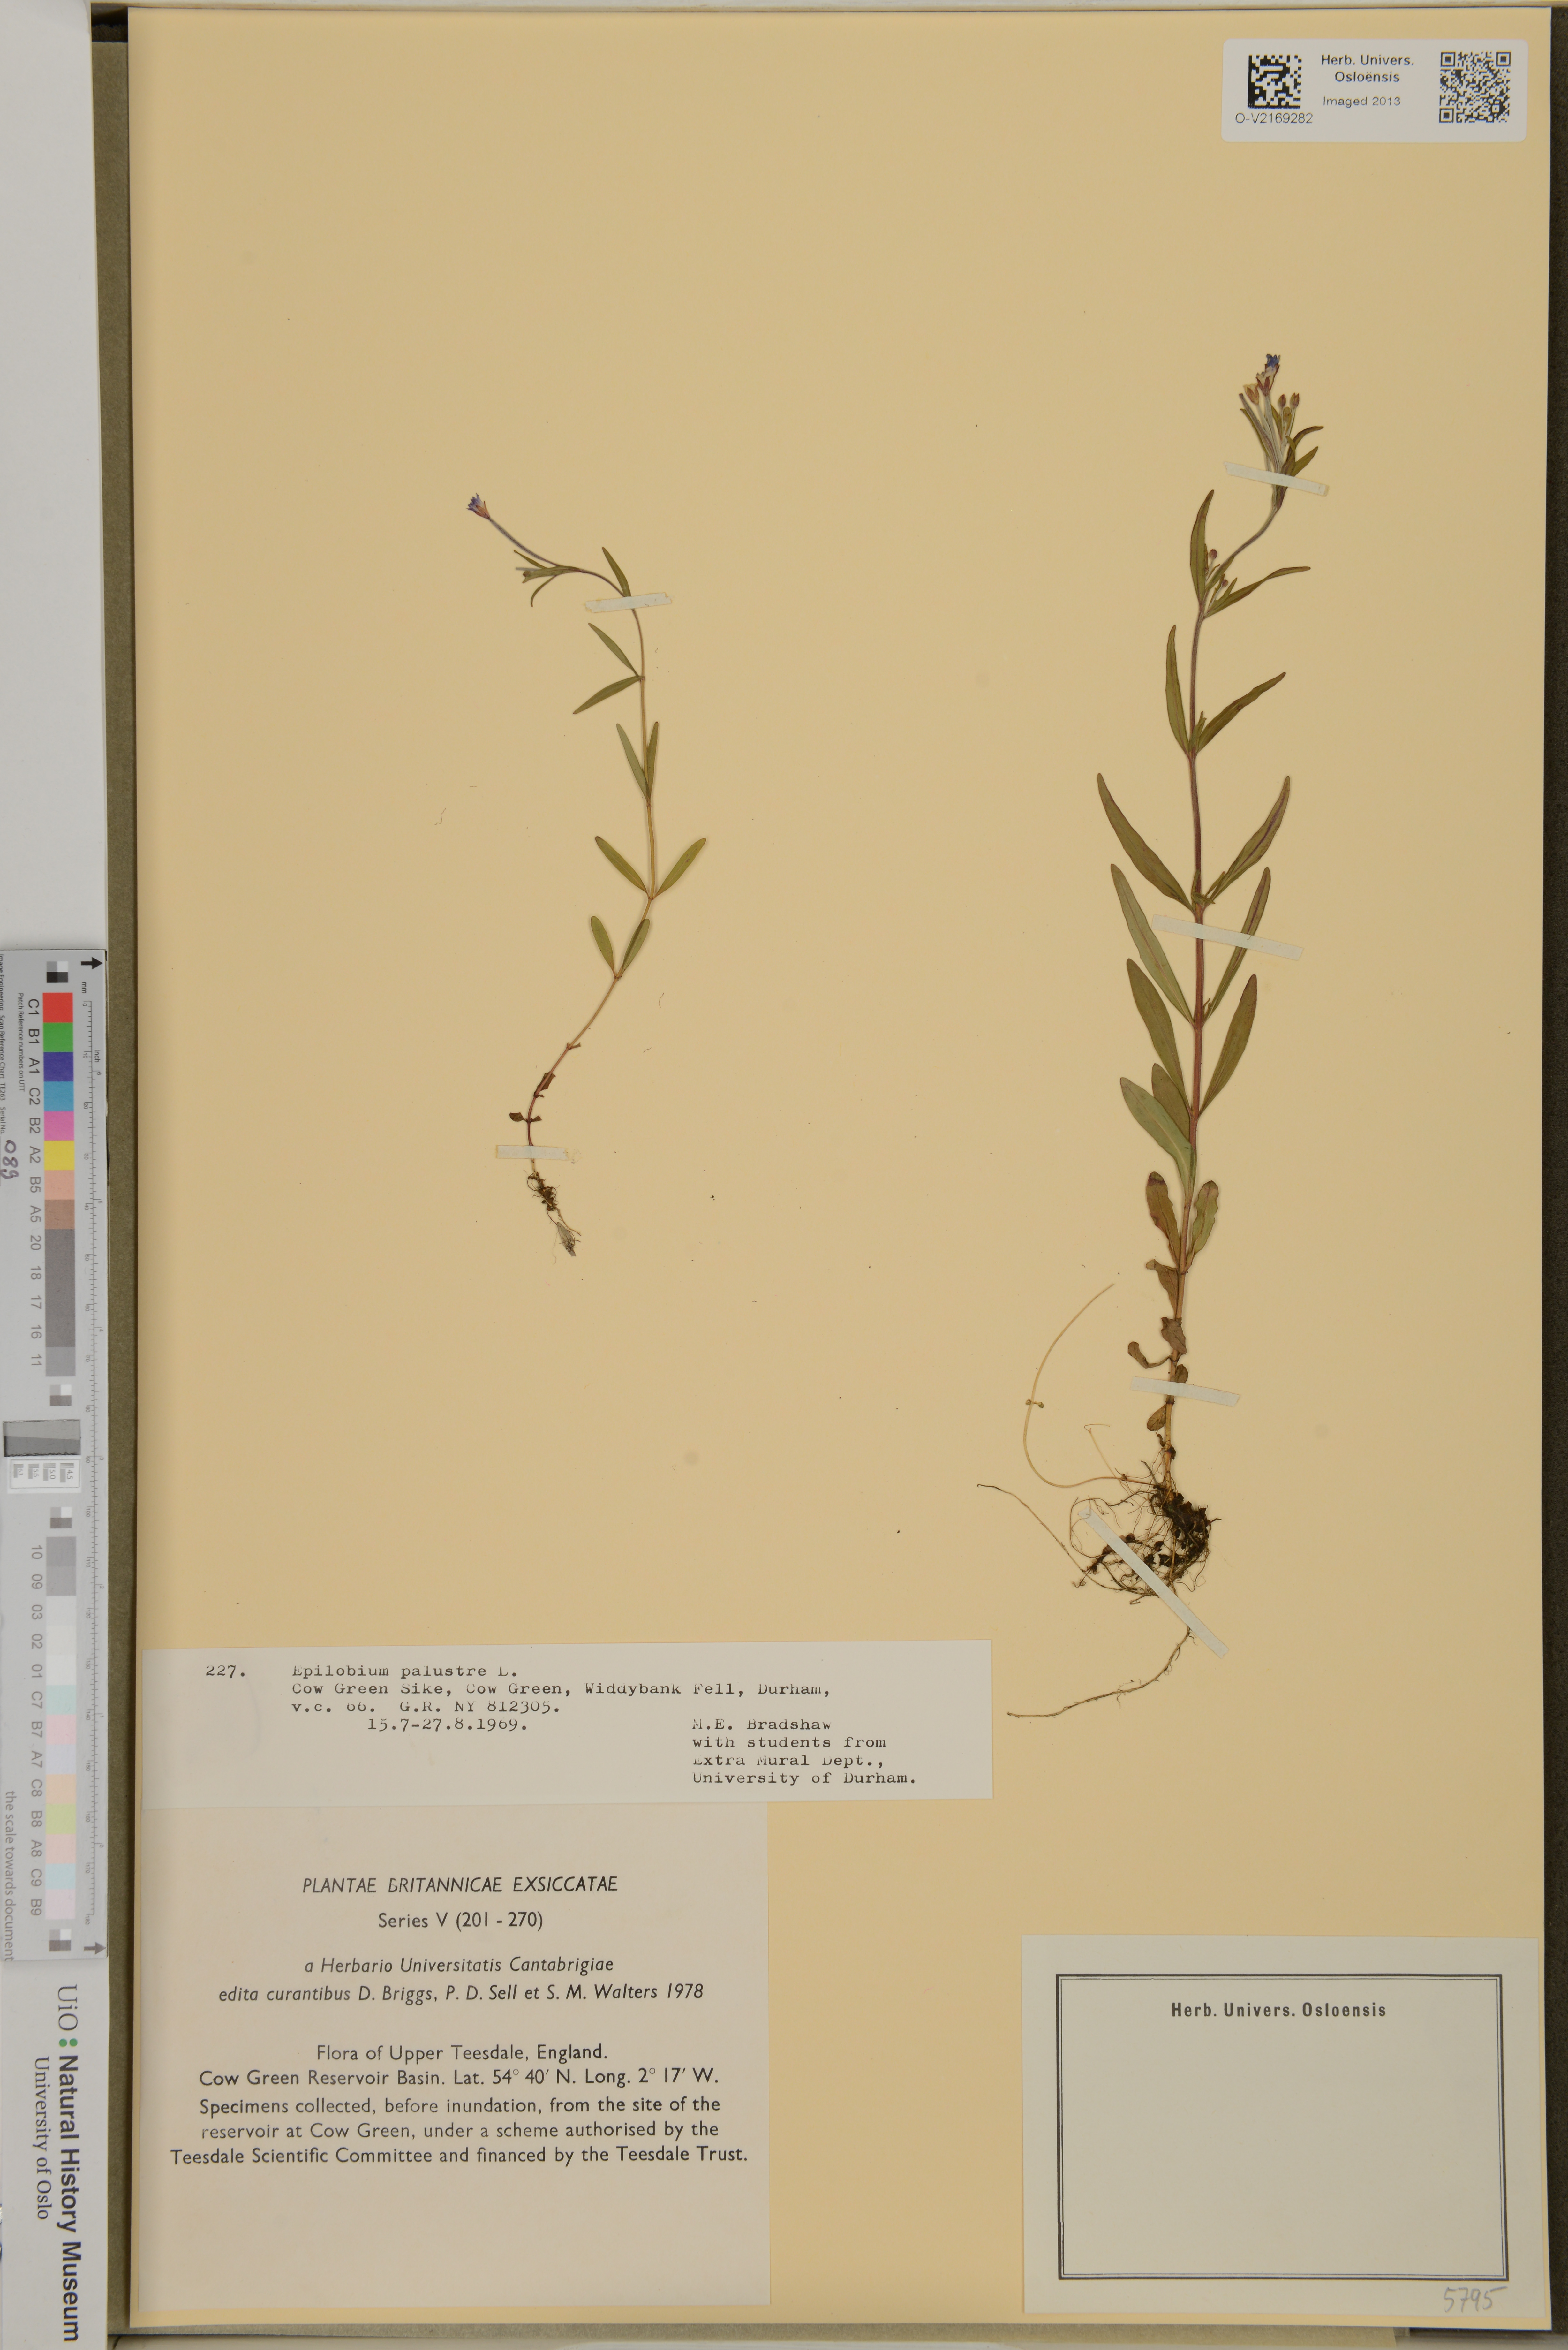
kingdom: Plantae
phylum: Tracheophyta
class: Magnoliopsida
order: Myrtales
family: Onagraceae
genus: Epilobium
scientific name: Epilobium palustre
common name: Marsh willowherb
